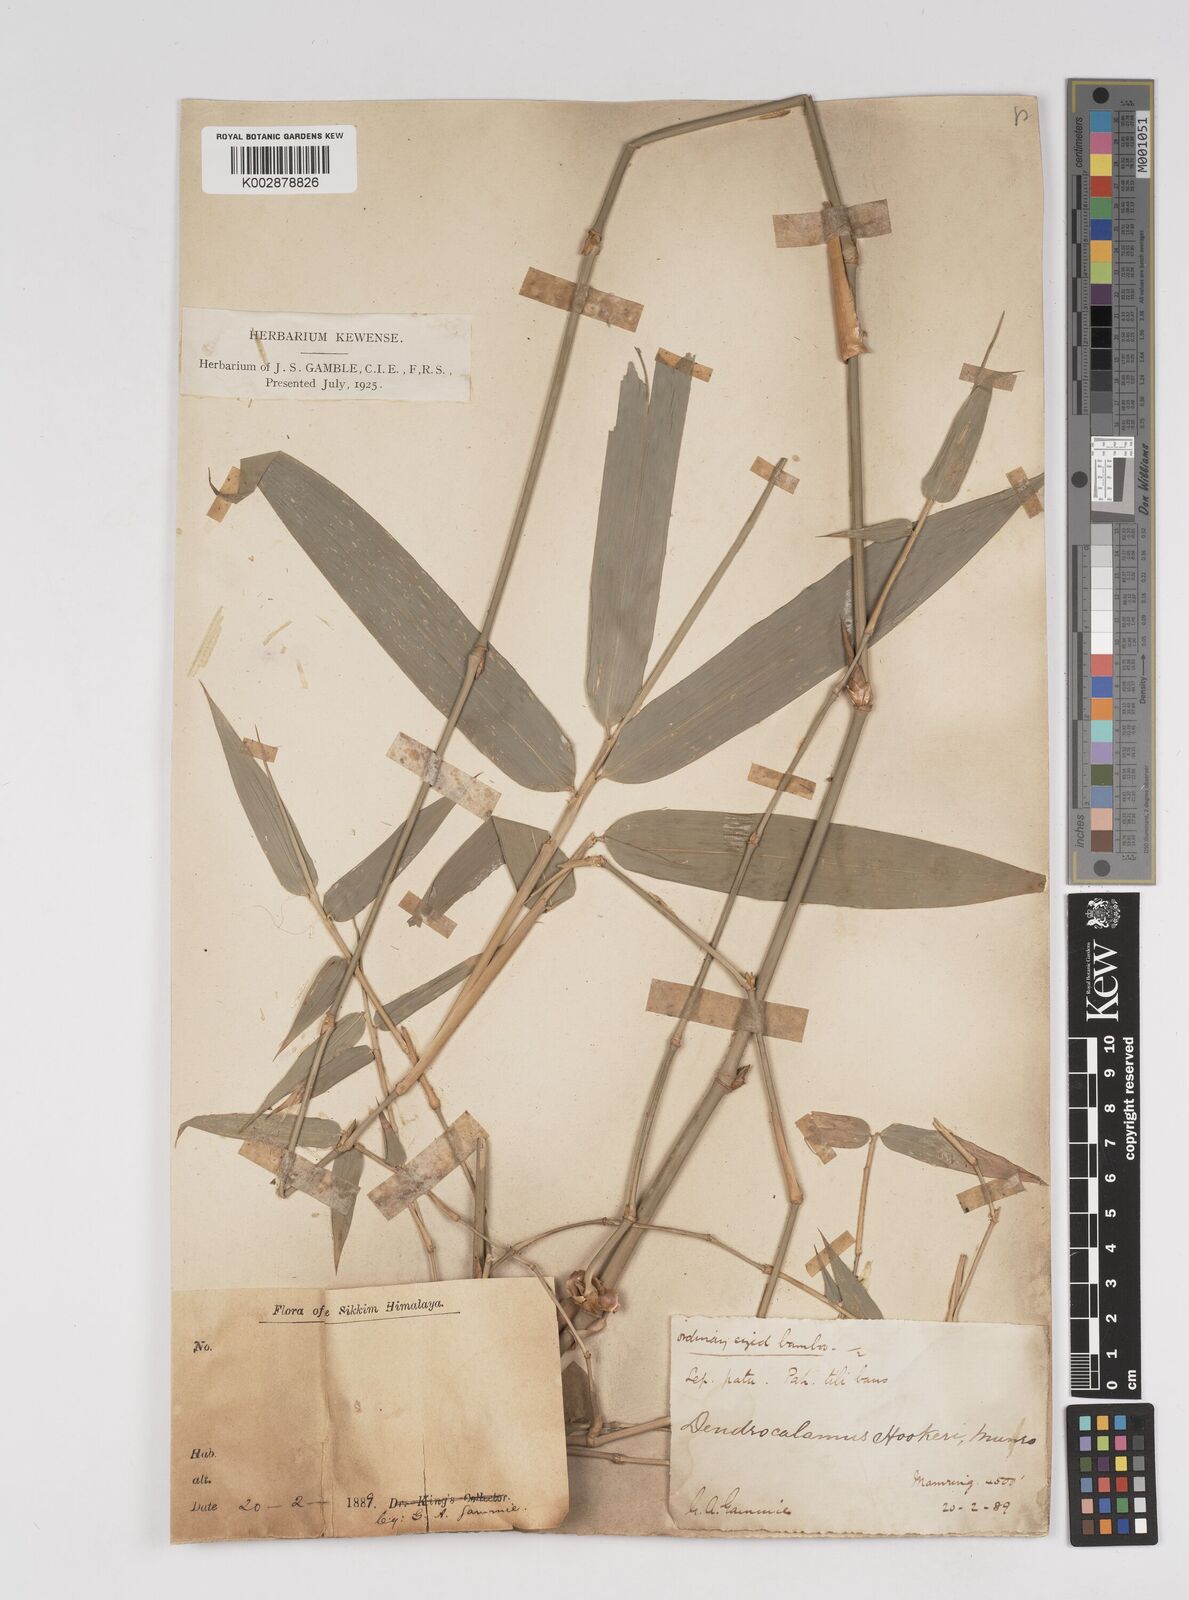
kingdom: Plantae
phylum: Tracheophyta
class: Liliopsida
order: Poales
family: Poaceae
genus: Dendrocalamus
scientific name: Dendrocalamus hookeri
